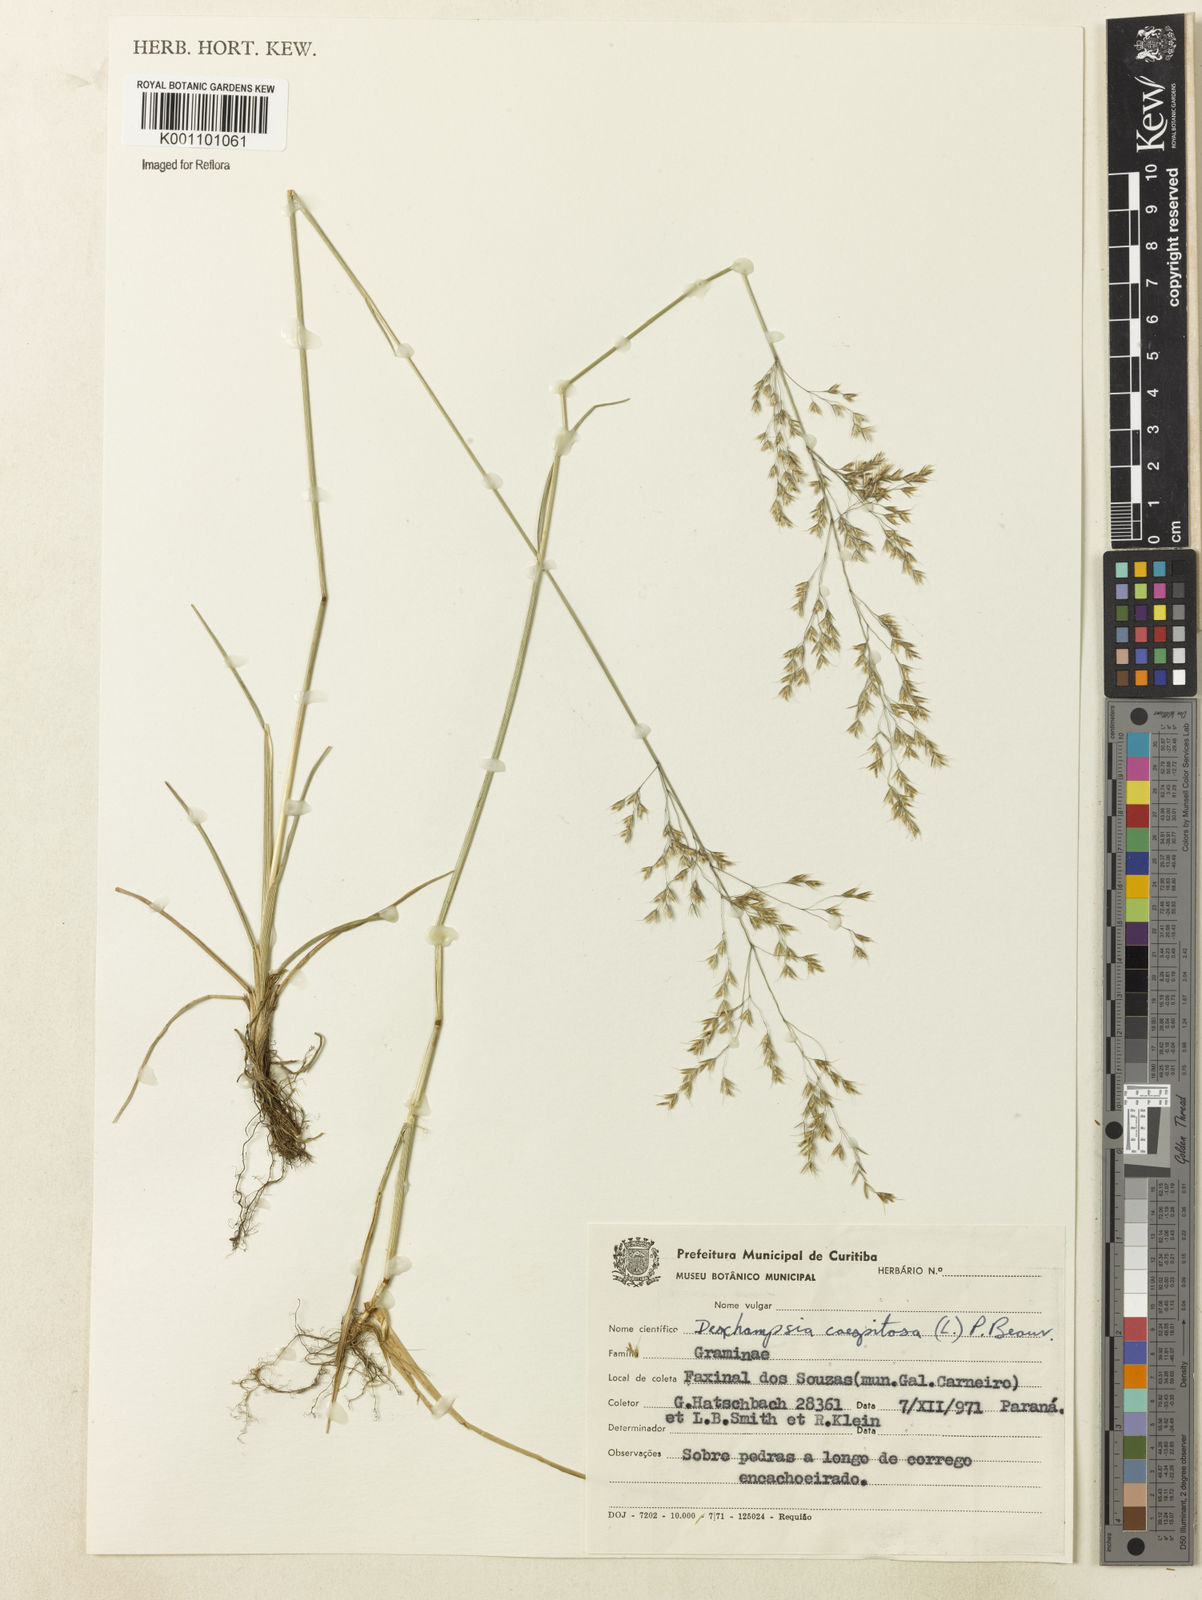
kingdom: Plantae
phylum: Tracheophyta
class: Liliopsida
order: Poales
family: Poaceae
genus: Deschampsia
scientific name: Deschampsia
